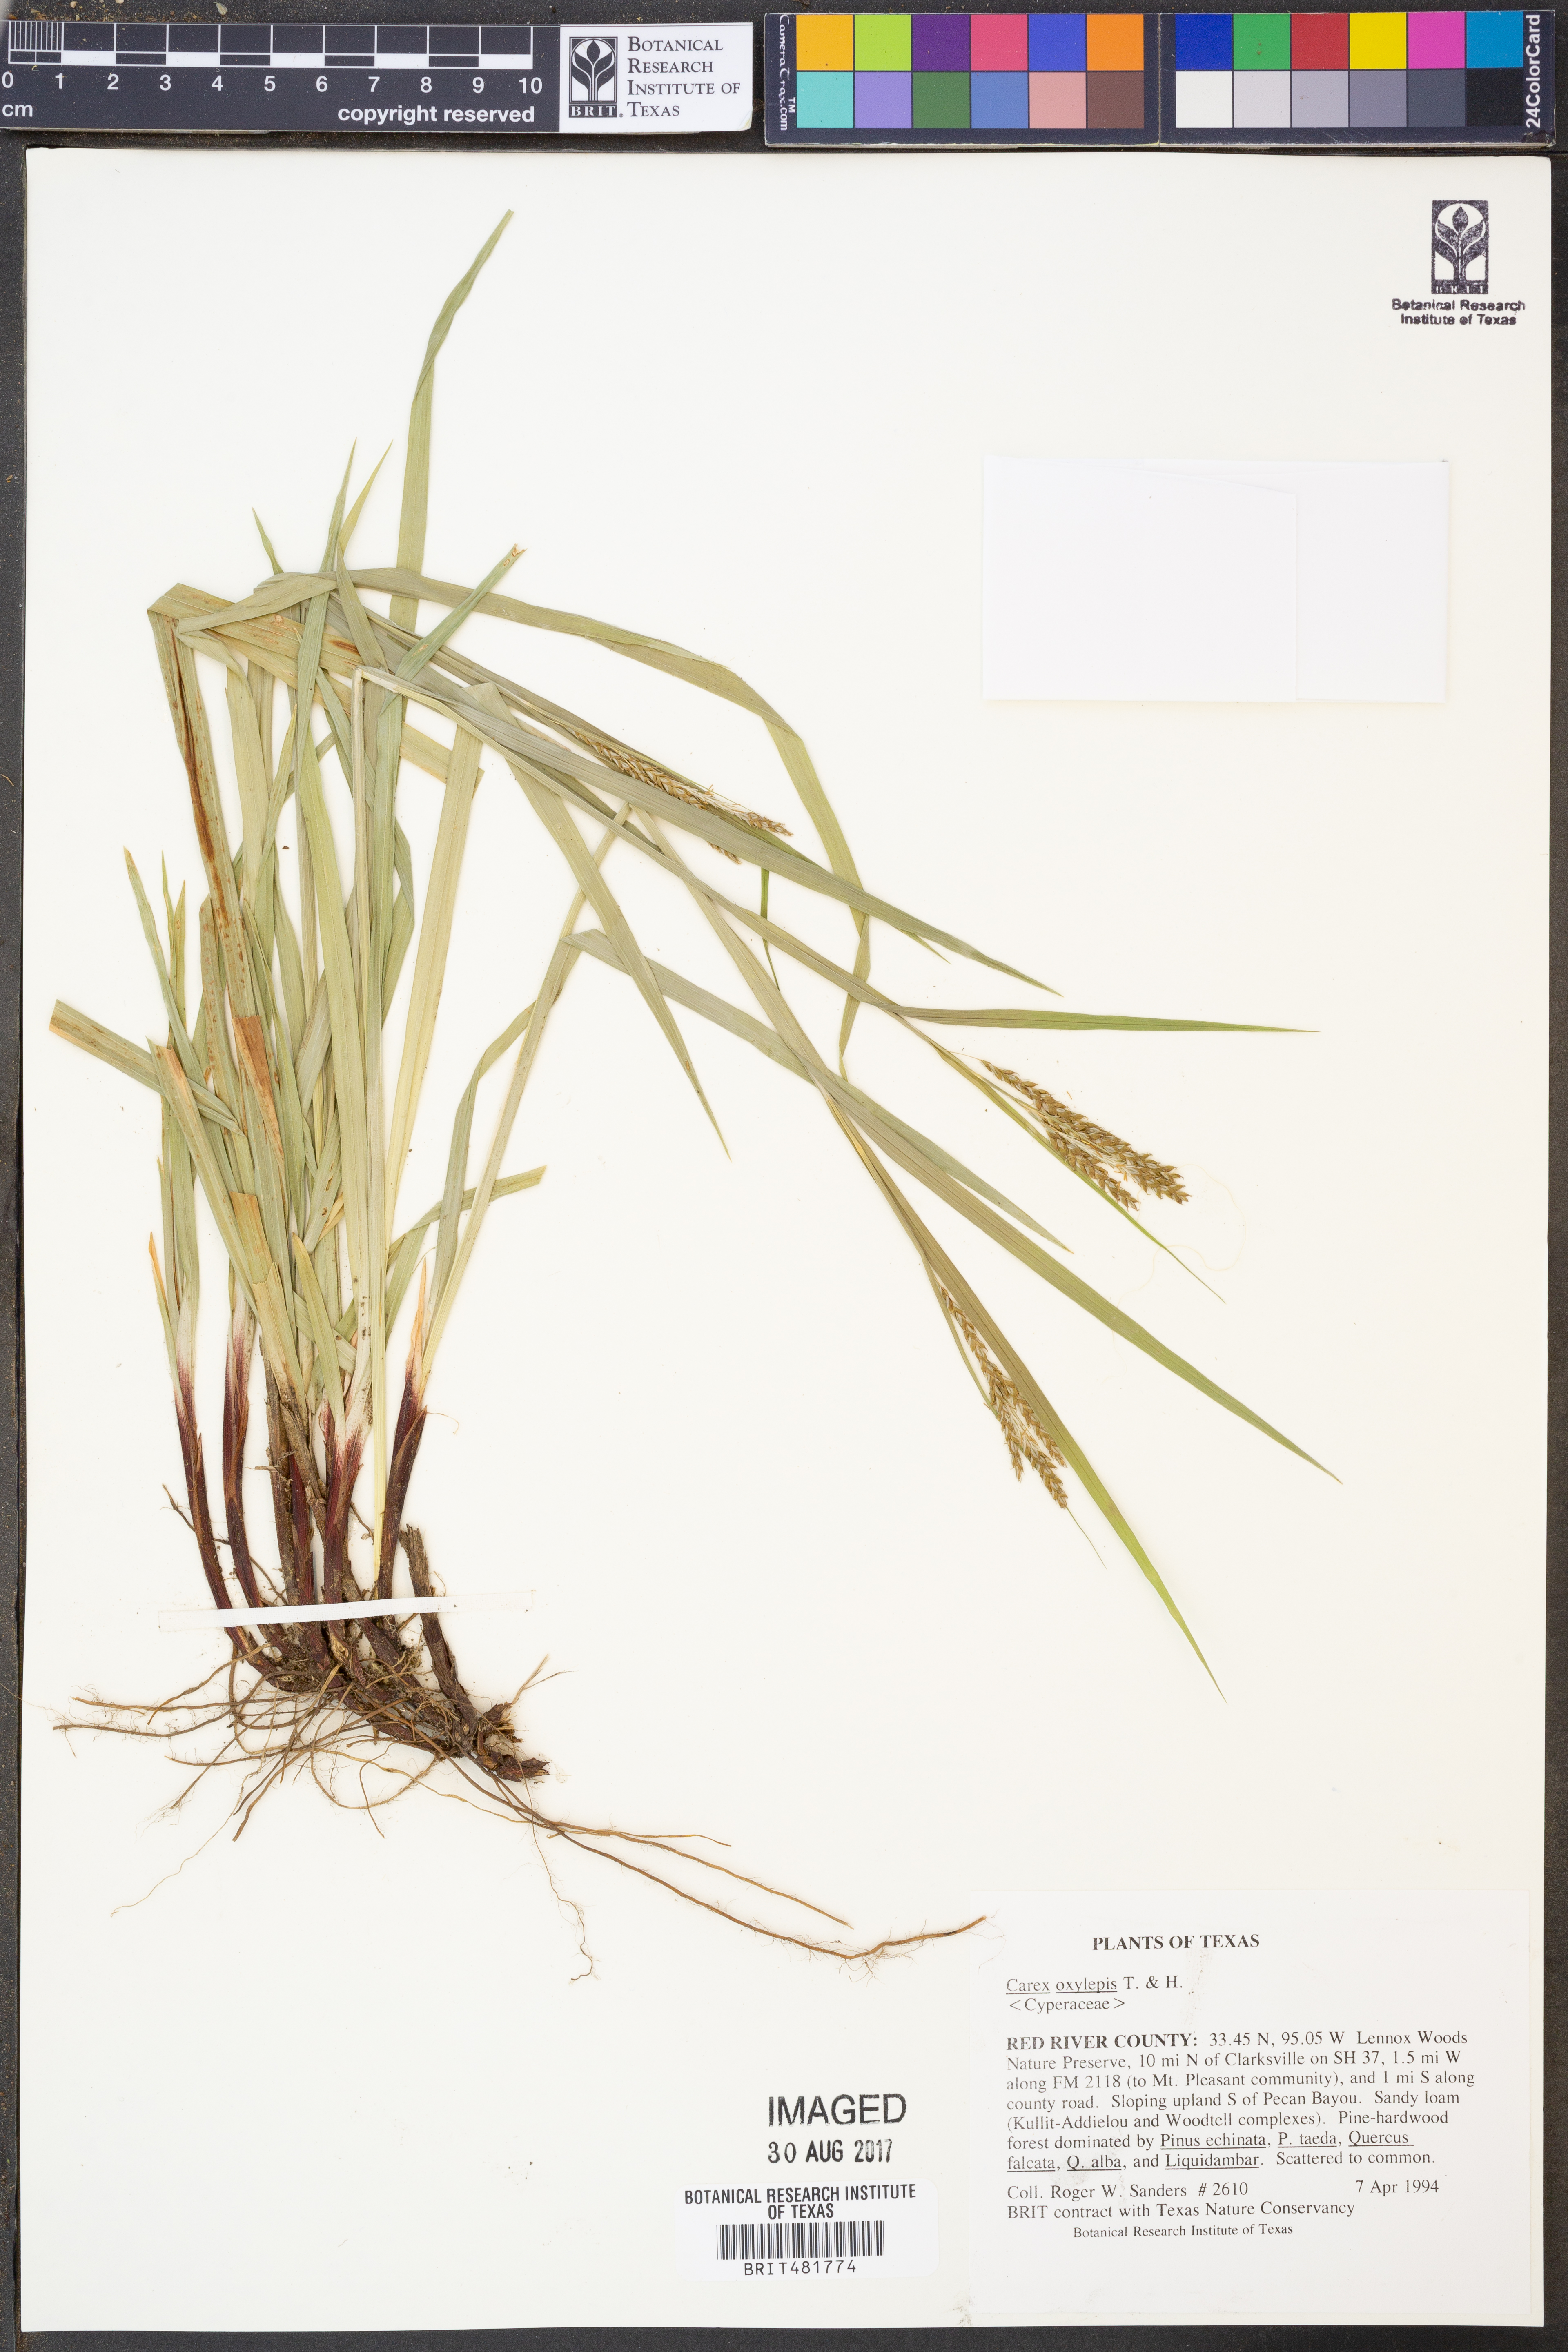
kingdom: Plantae
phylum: Tracheophyta
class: Liliopsida
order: Poales
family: Cyperaceae
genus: Carex
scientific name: Carex oxylepis
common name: Sharpscale sedge
